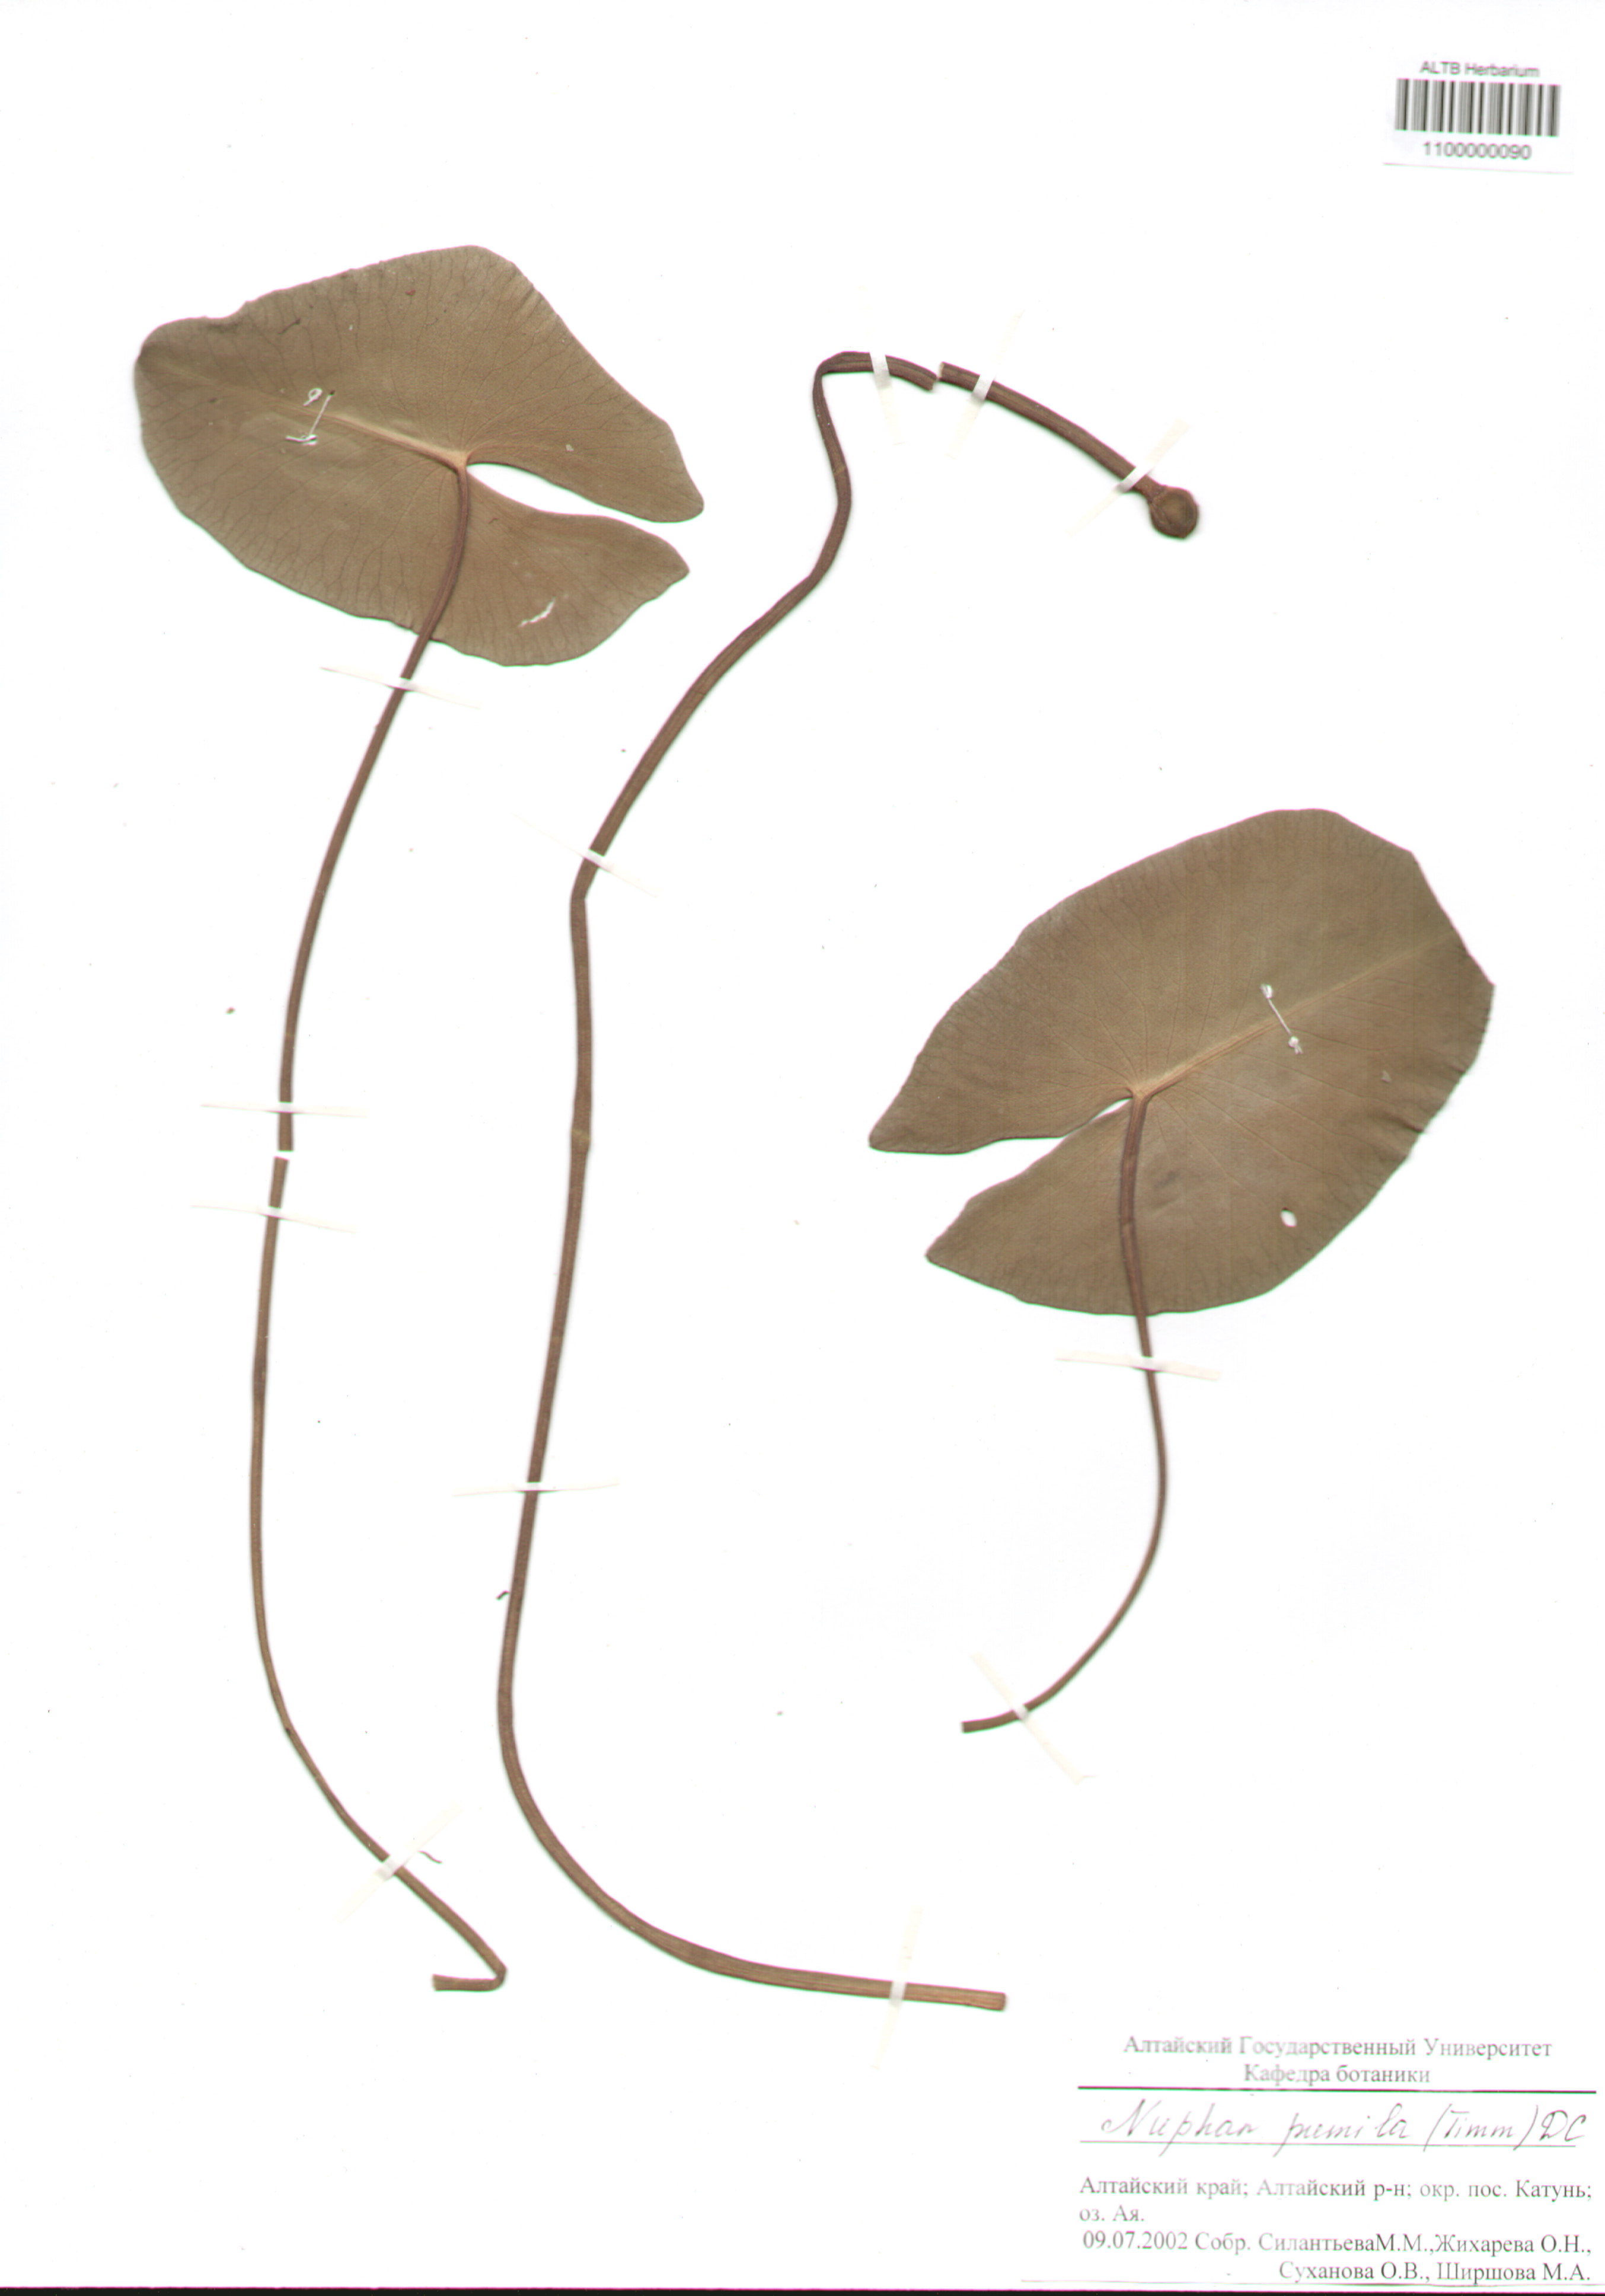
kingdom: Plantae
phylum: Tracheophyta
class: Magnoliopsida
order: Nymphaeales
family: Nymphaeaceae
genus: Nuphar
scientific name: Nuphar pumila
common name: Least water-lily
